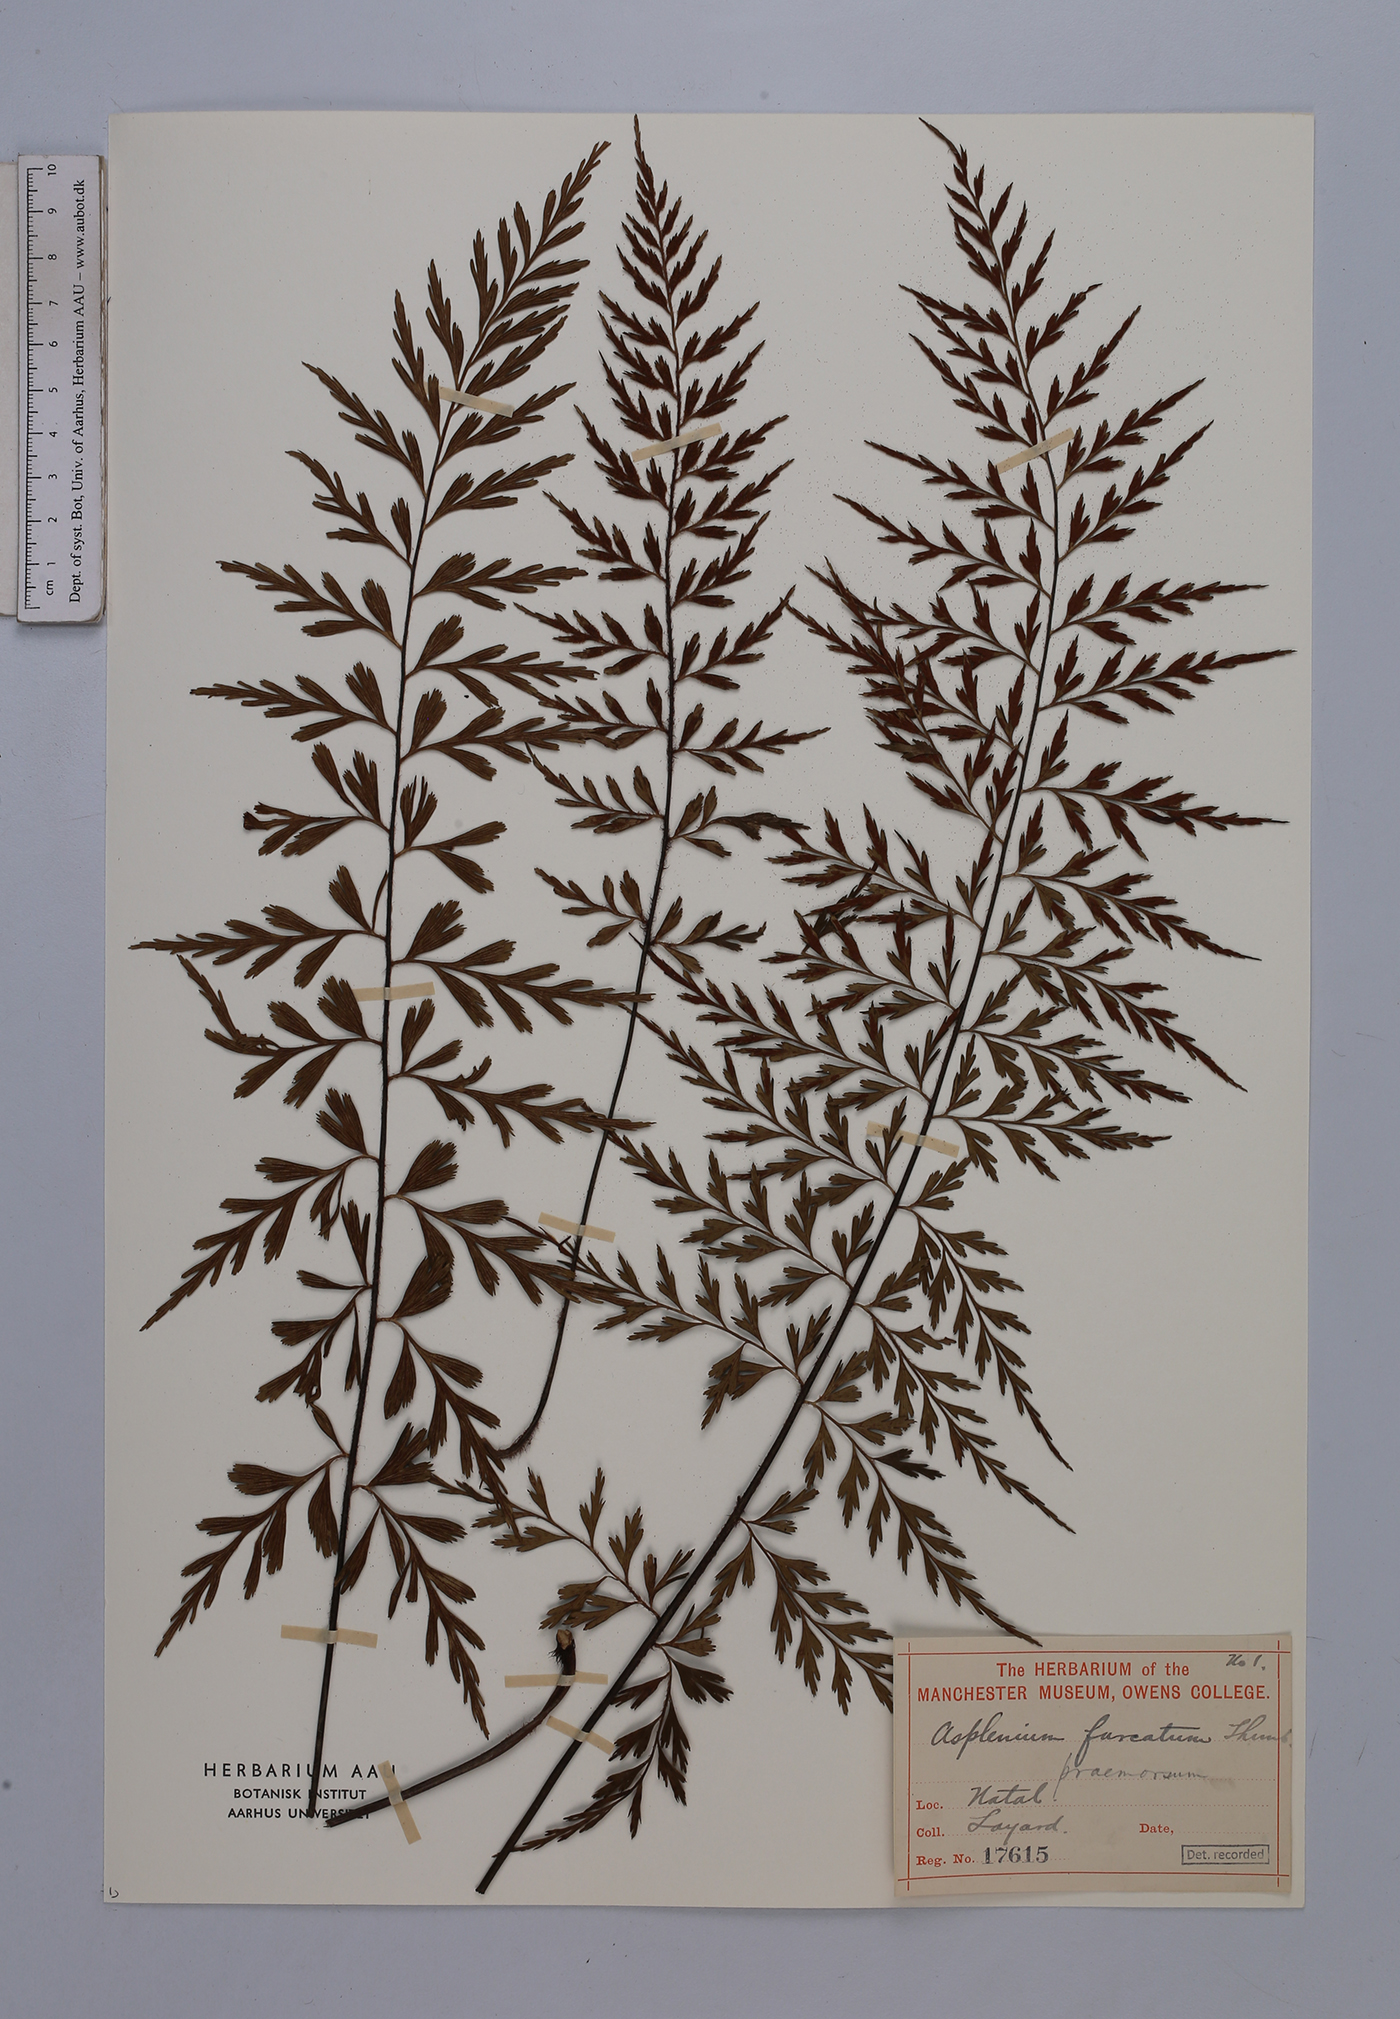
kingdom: Plantae
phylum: Tracheophyta
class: Polypodiopsida
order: Polypodiales
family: Aspleniaceae
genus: Asplenium
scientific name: Asplenium praemorsum
